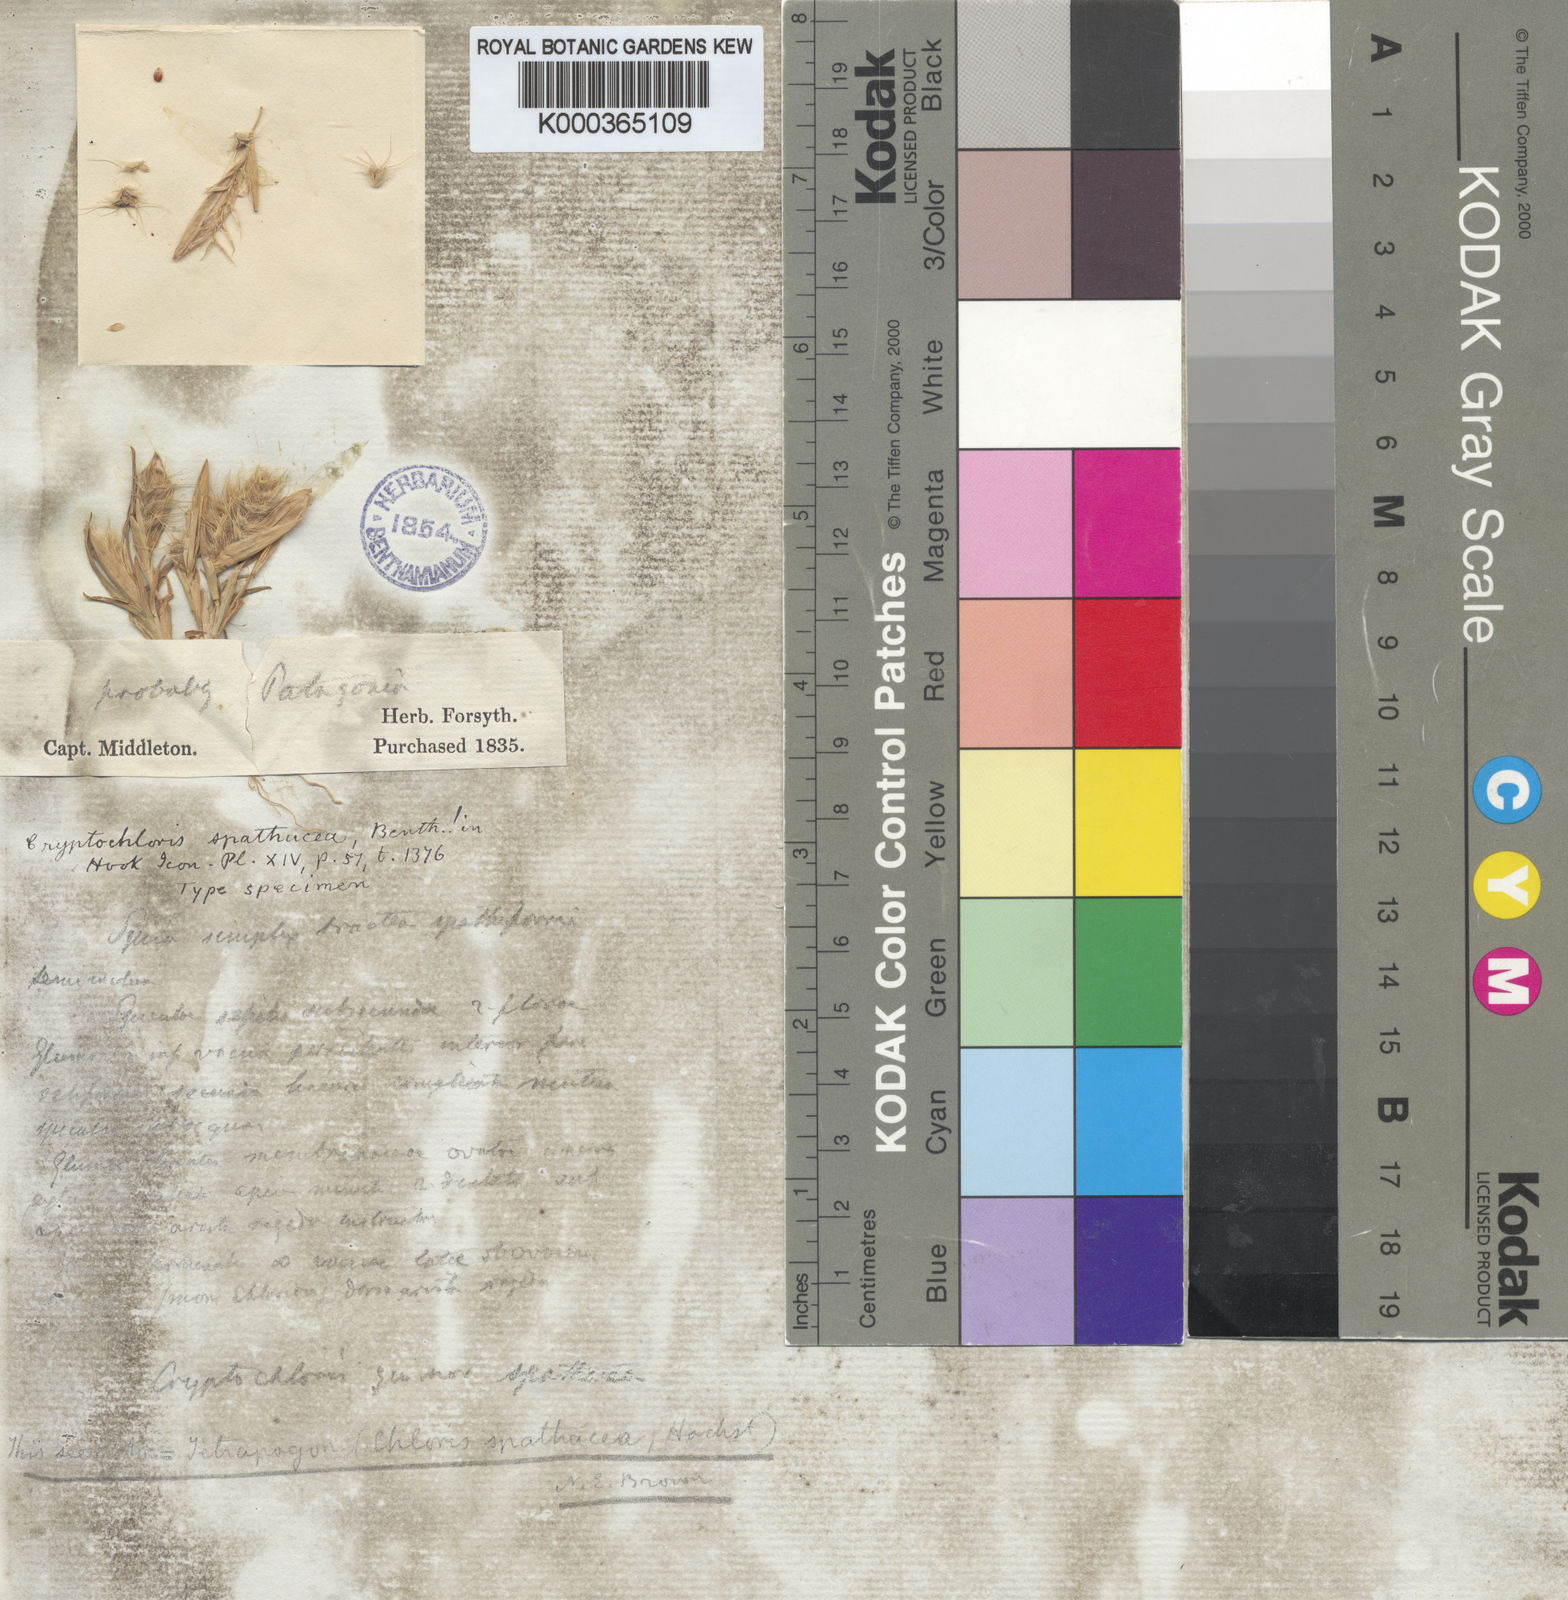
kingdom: Plantae
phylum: Tracheophyta
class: Liliopsida
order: Poales
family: Poaceae
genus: Tetrapogon
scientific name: Tetrapogon cenchriformis
